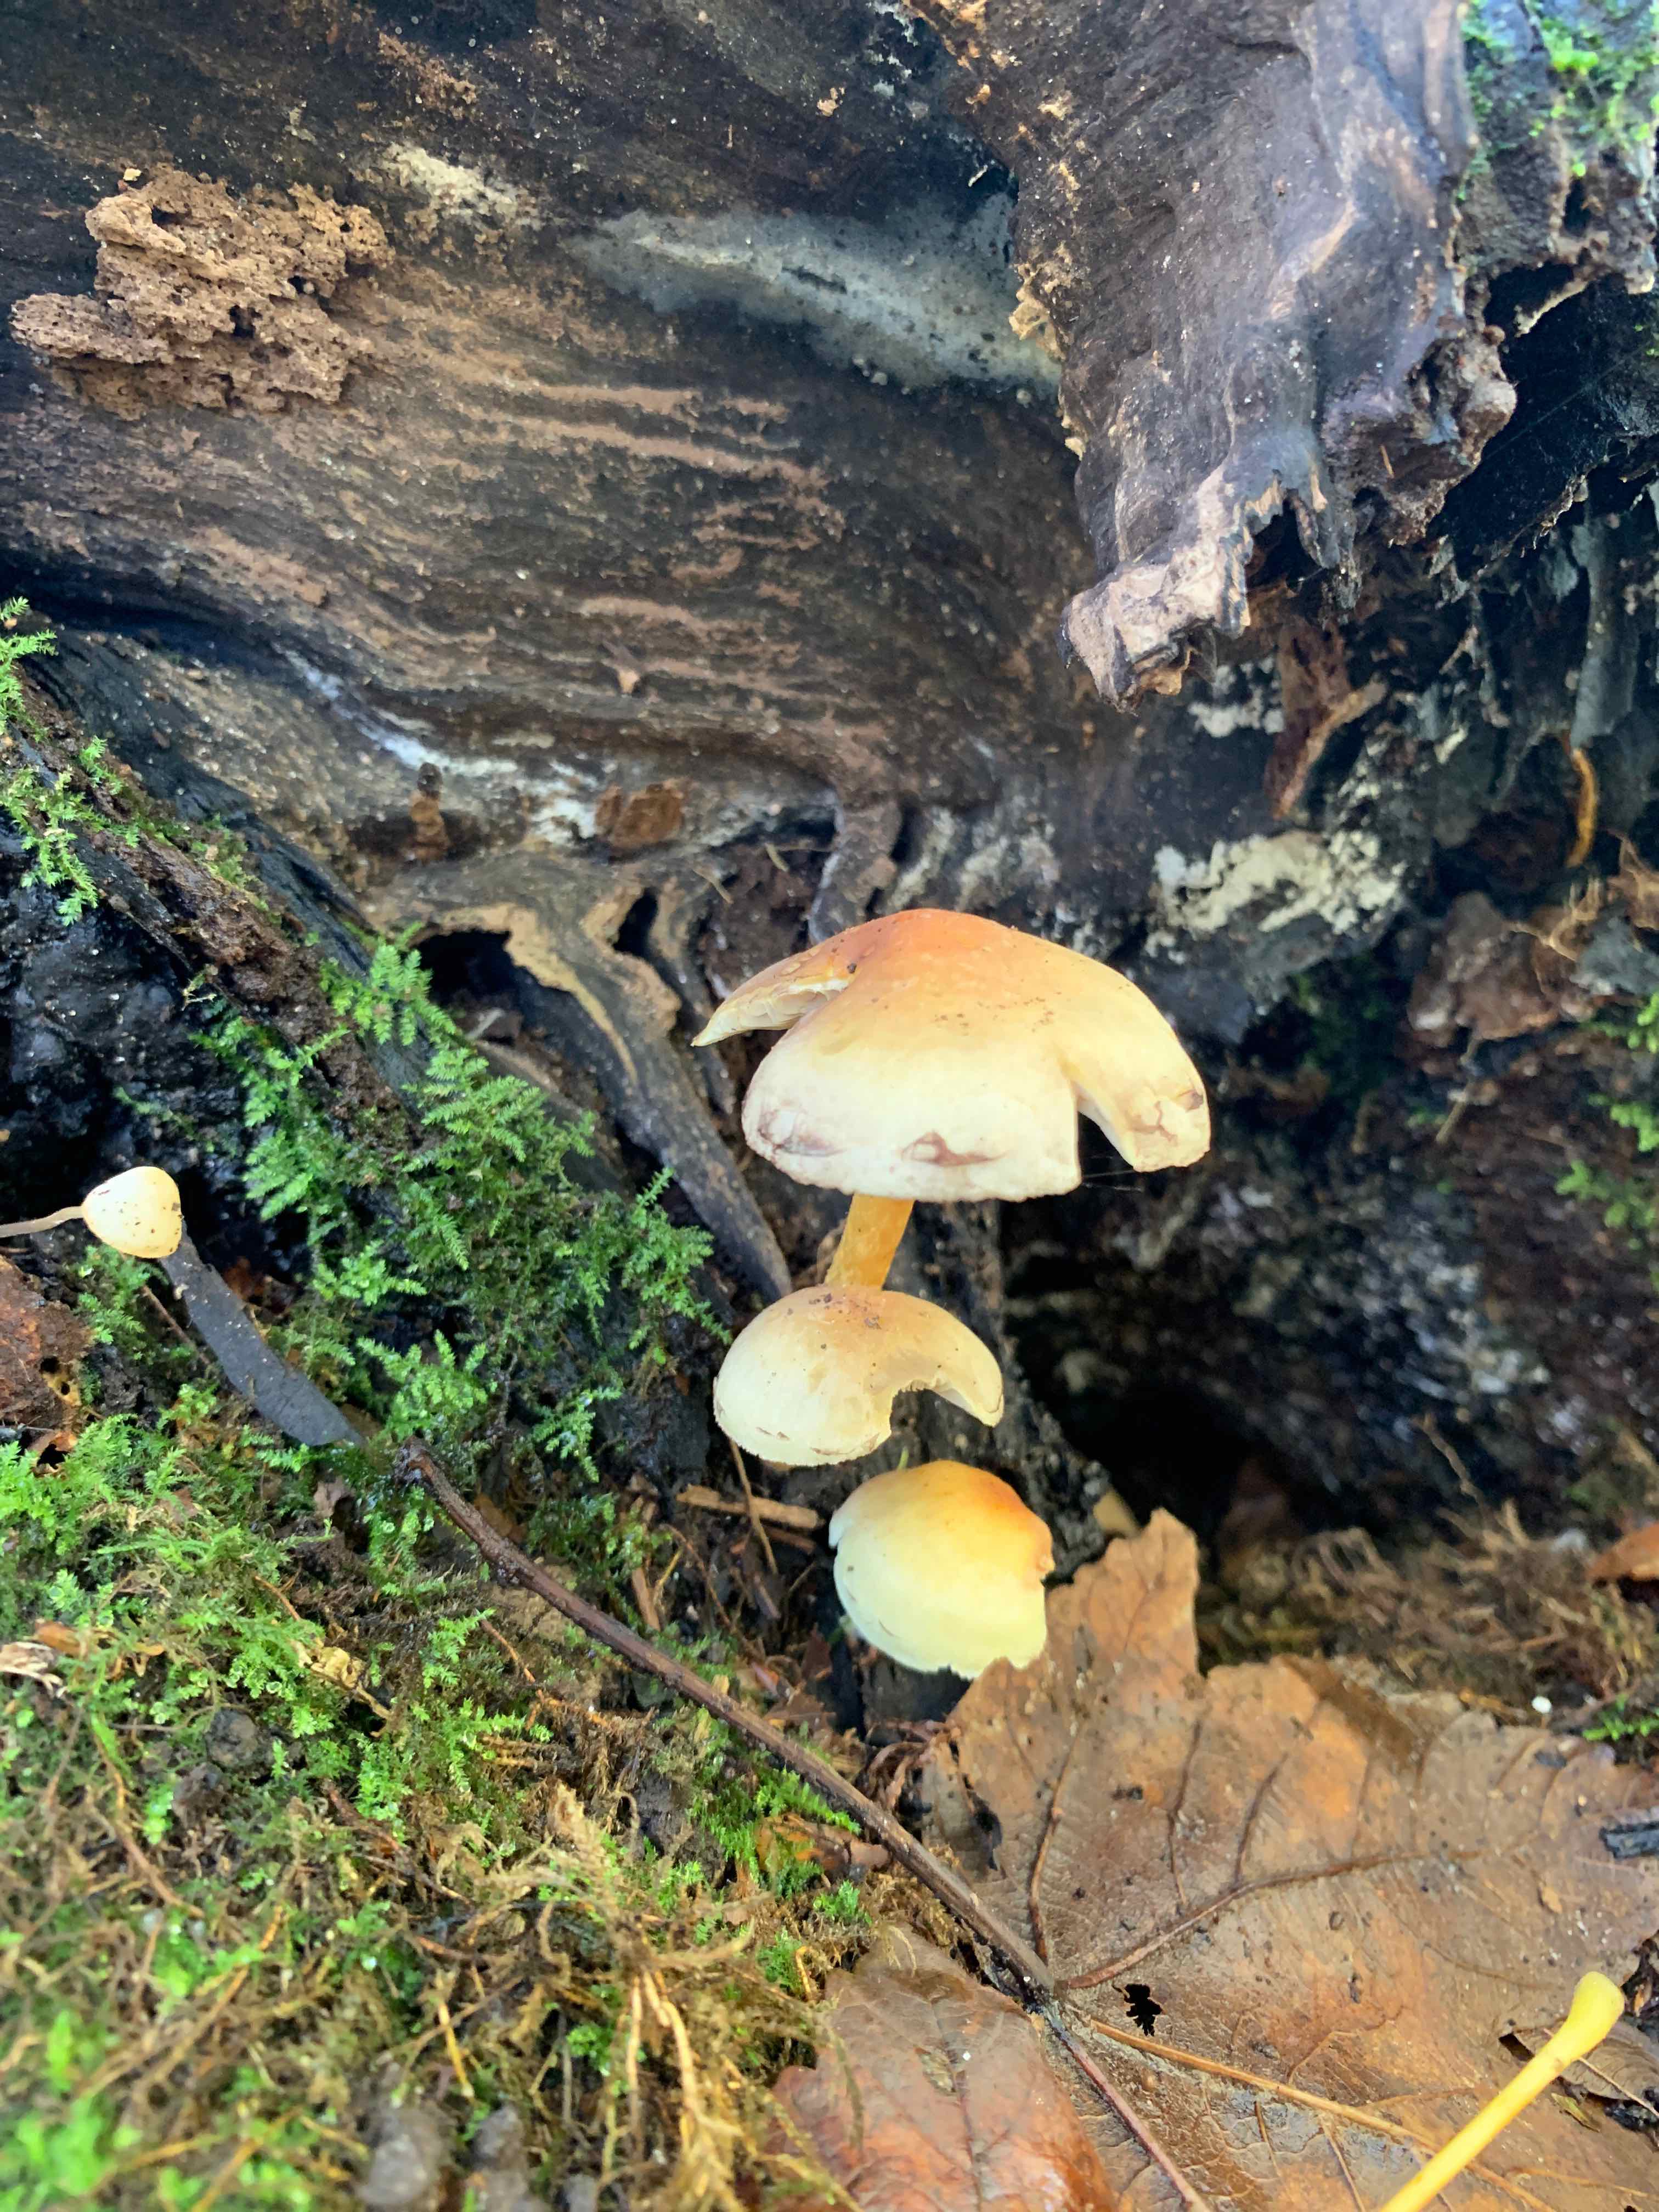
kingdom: Fungi
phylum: Basidiomycota
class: Agaricomycetes
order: Agaricales
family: Strophariaceae
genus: Hypholoma
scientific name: Hypholoma fasciculare
